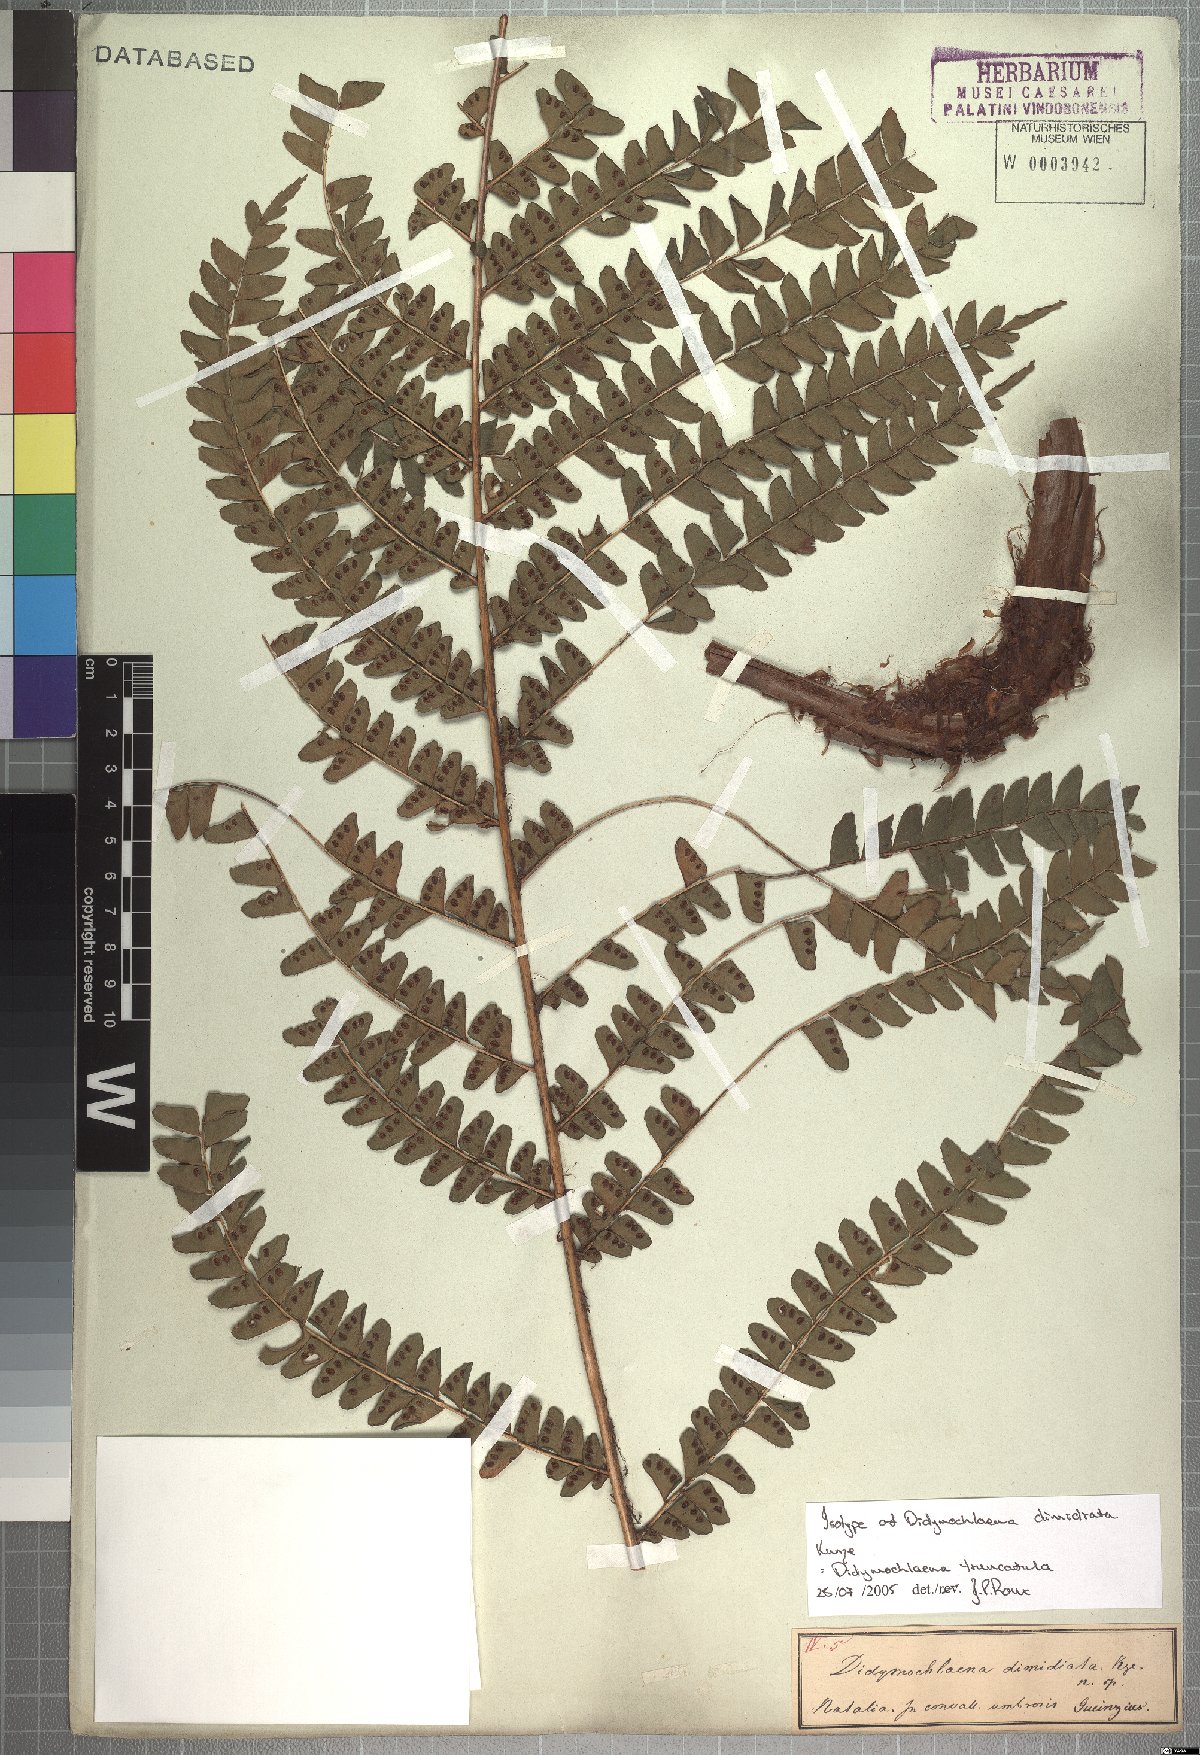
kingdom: Plantae
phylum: Tracheophyta
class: Polypodiopsida
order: Polypodiales
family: Didymochlaenaceae
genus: Didymochlaena
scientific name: Didymochlaena truncatula
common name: Mahogany fern
